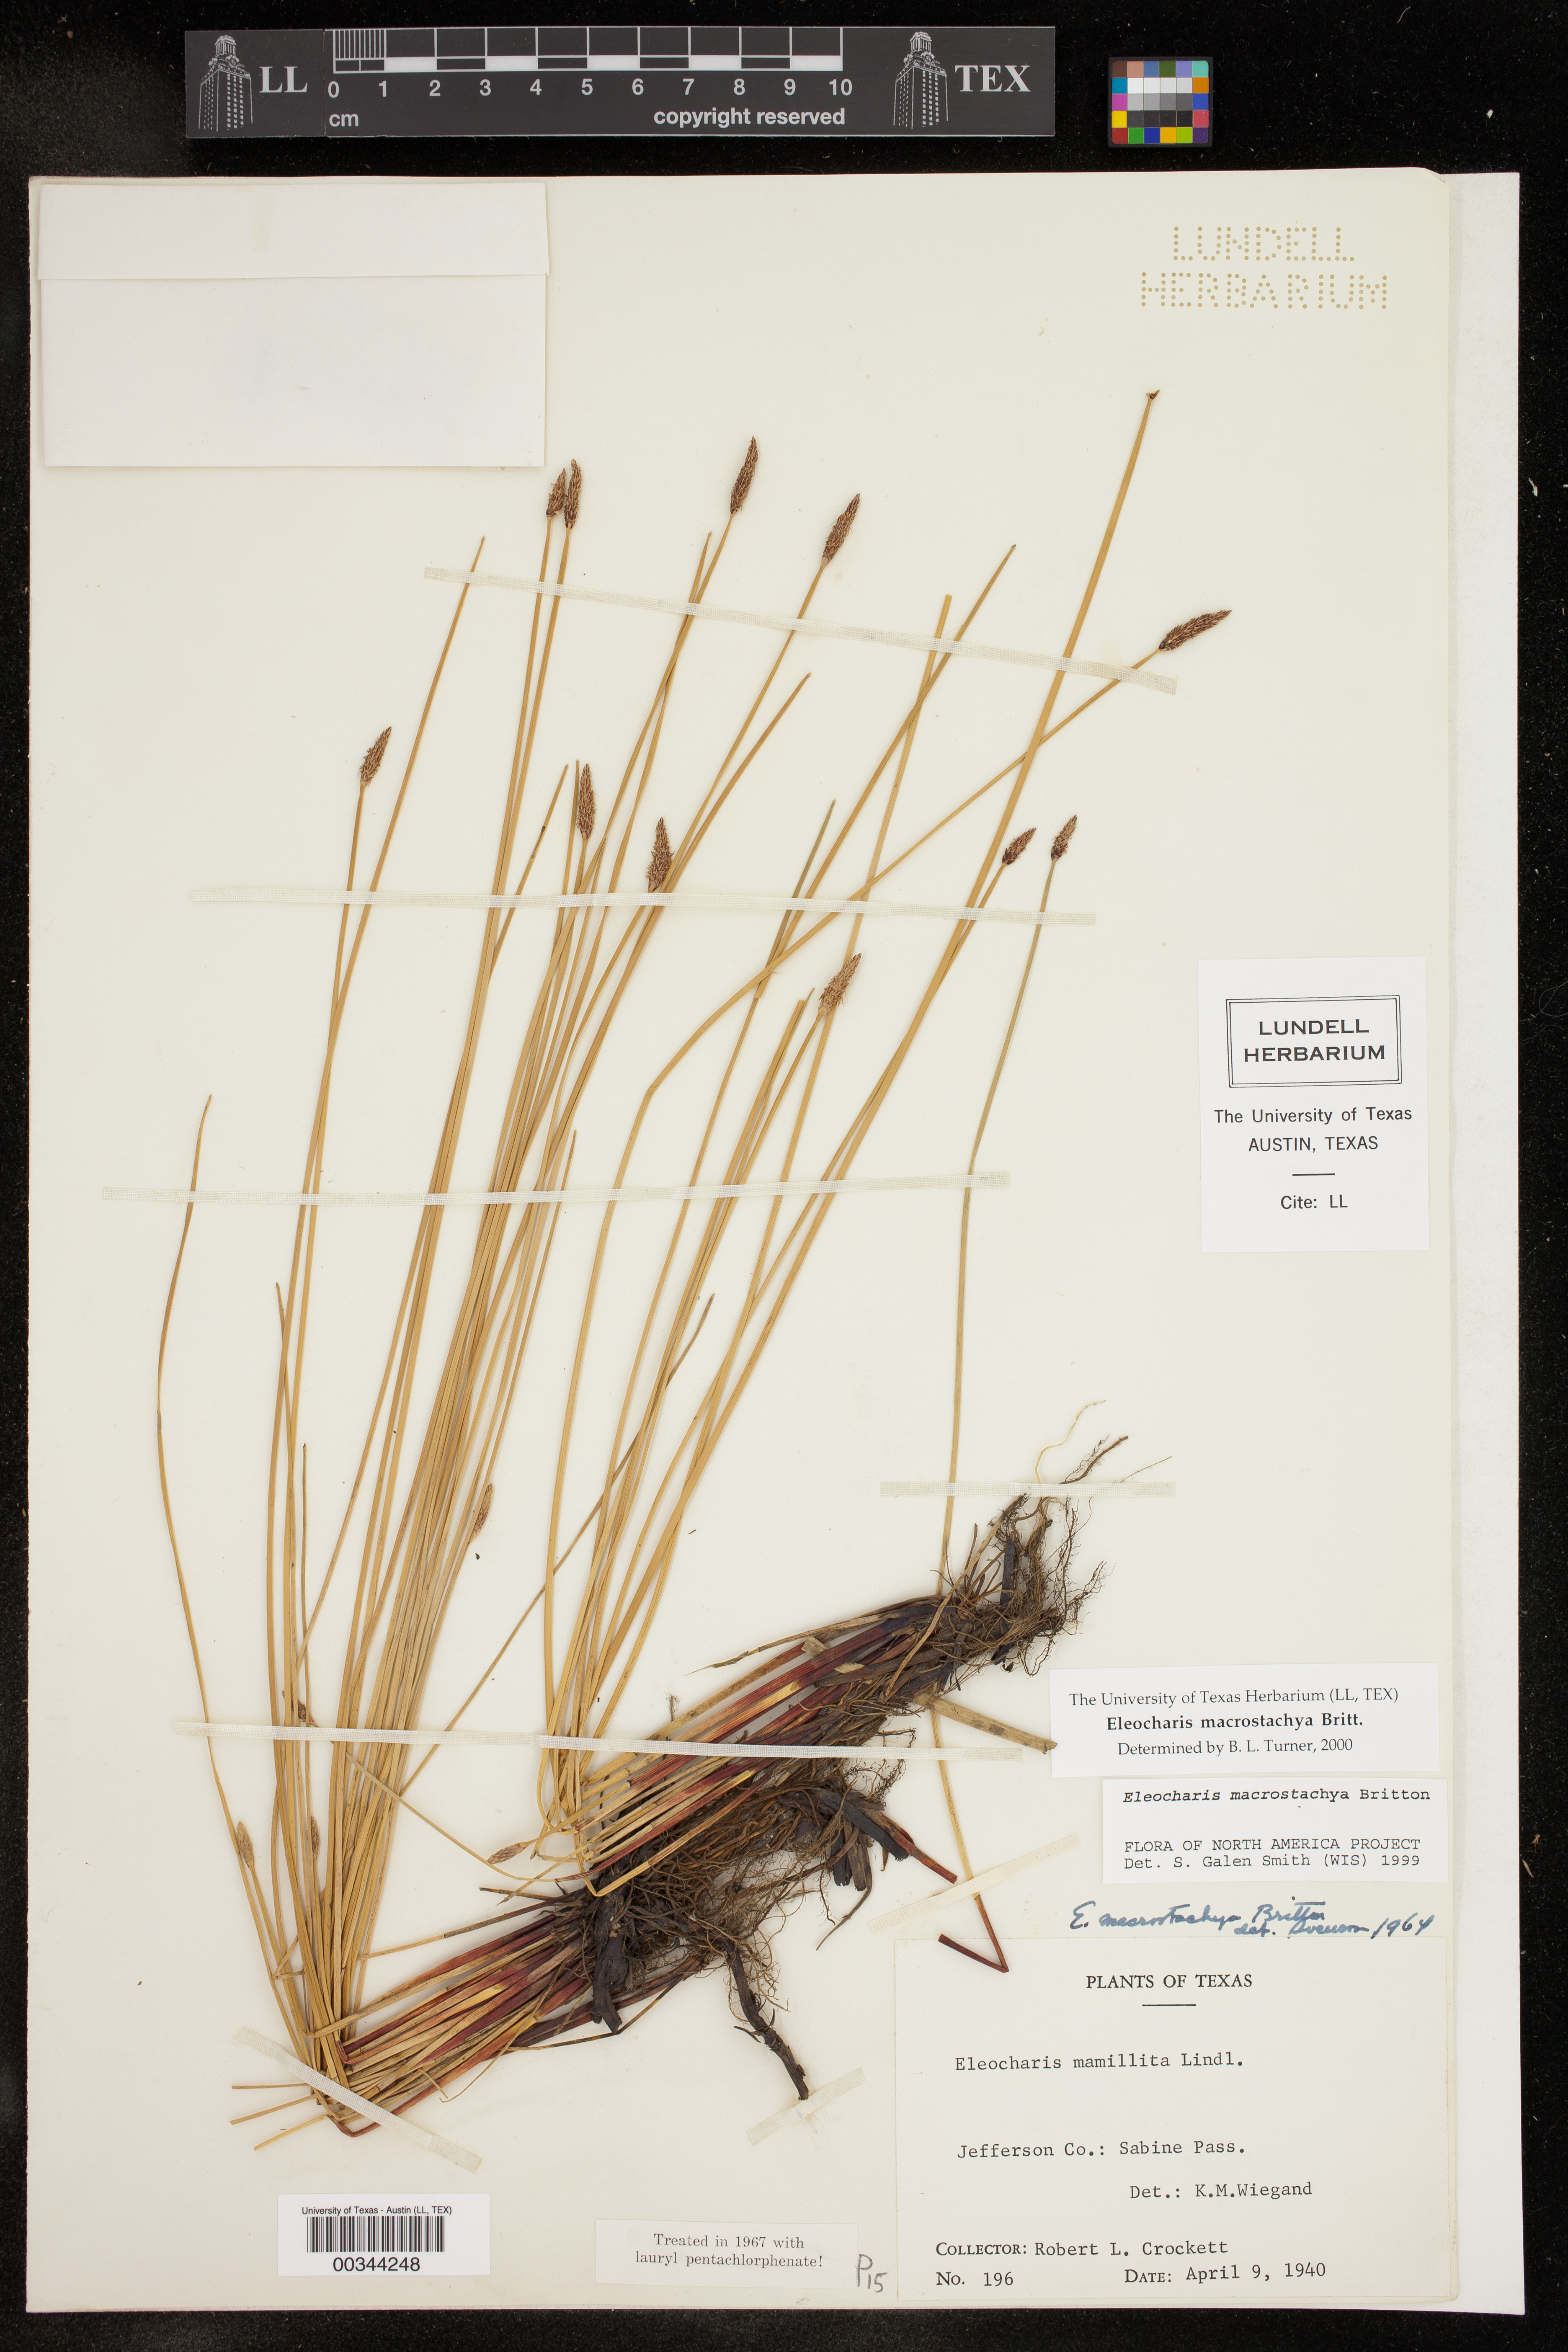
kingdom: Plantae
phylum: Tracheophyta
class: Liliopsida
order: Poales
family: Cyperaceae
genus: Eleocharis
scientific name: Eleocharis macrostachya
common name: Pale spikerush
